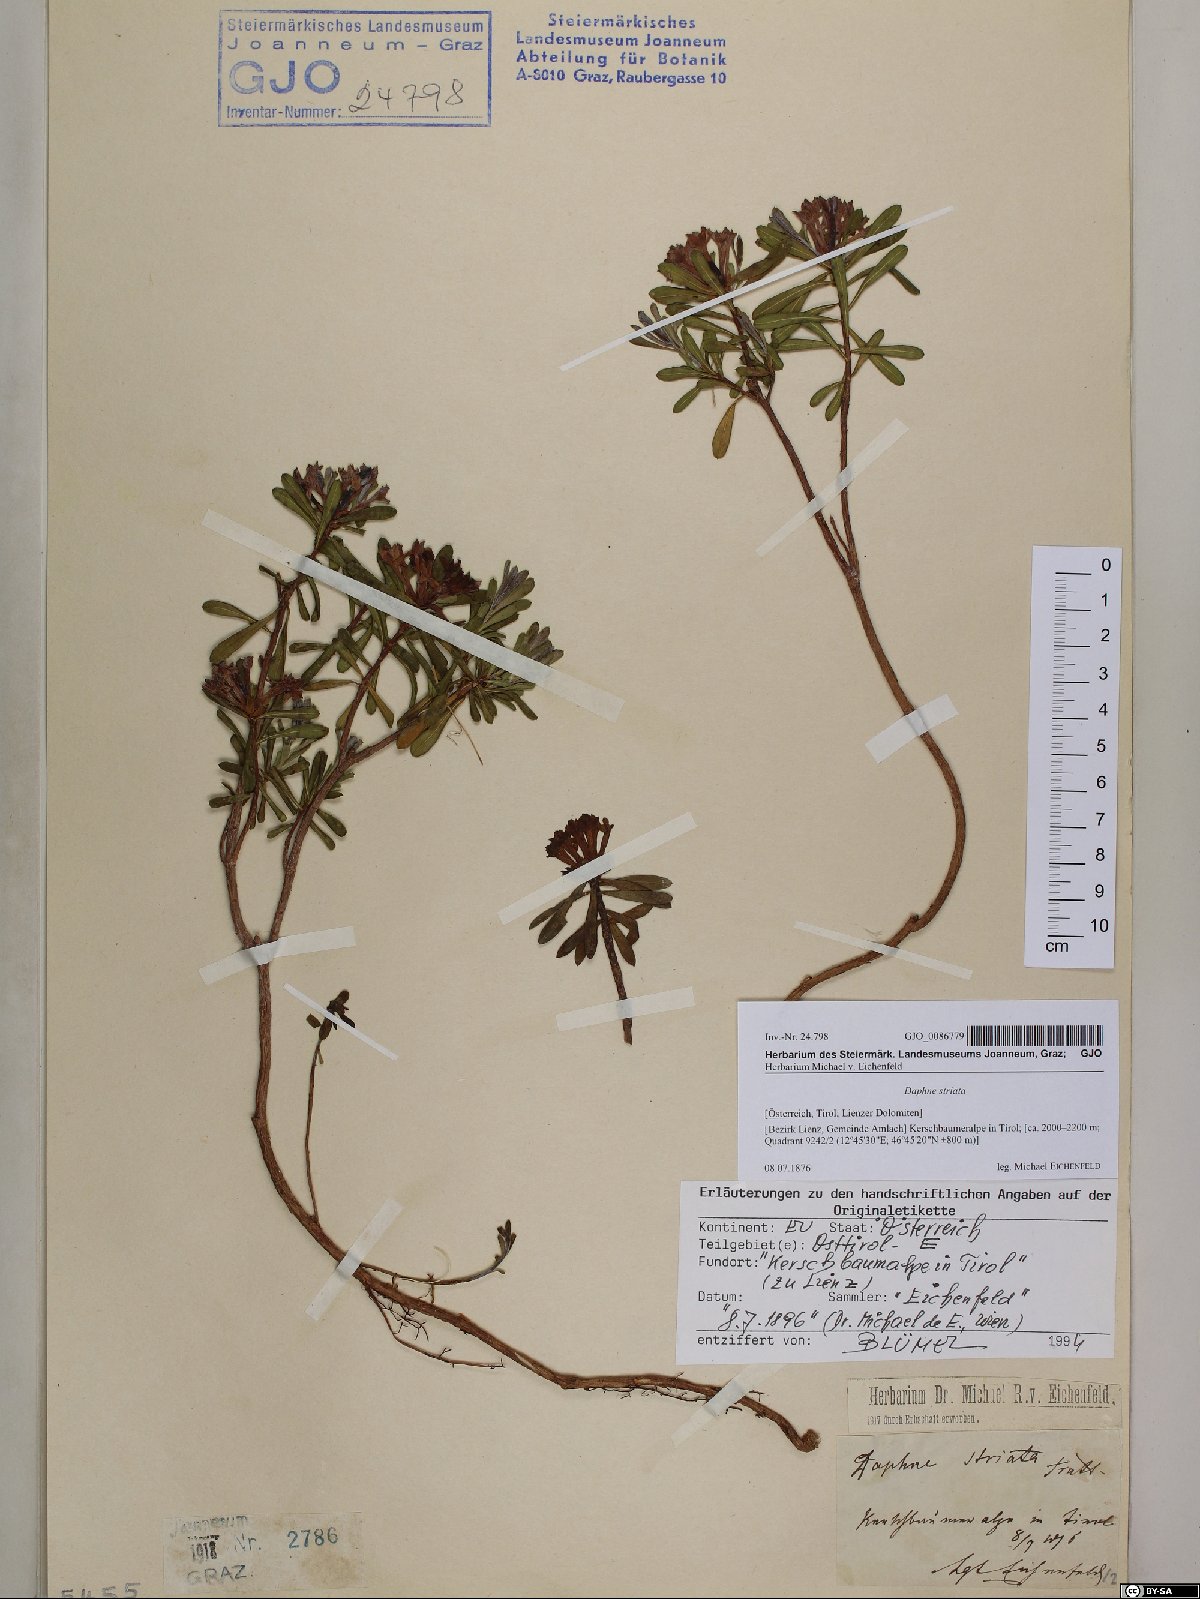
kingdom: Plantae
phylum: Tracheophyta
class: Magnoliopsida
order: Malvales
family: Thymelaeaceae
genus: Daphne
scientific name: Daphne striata
